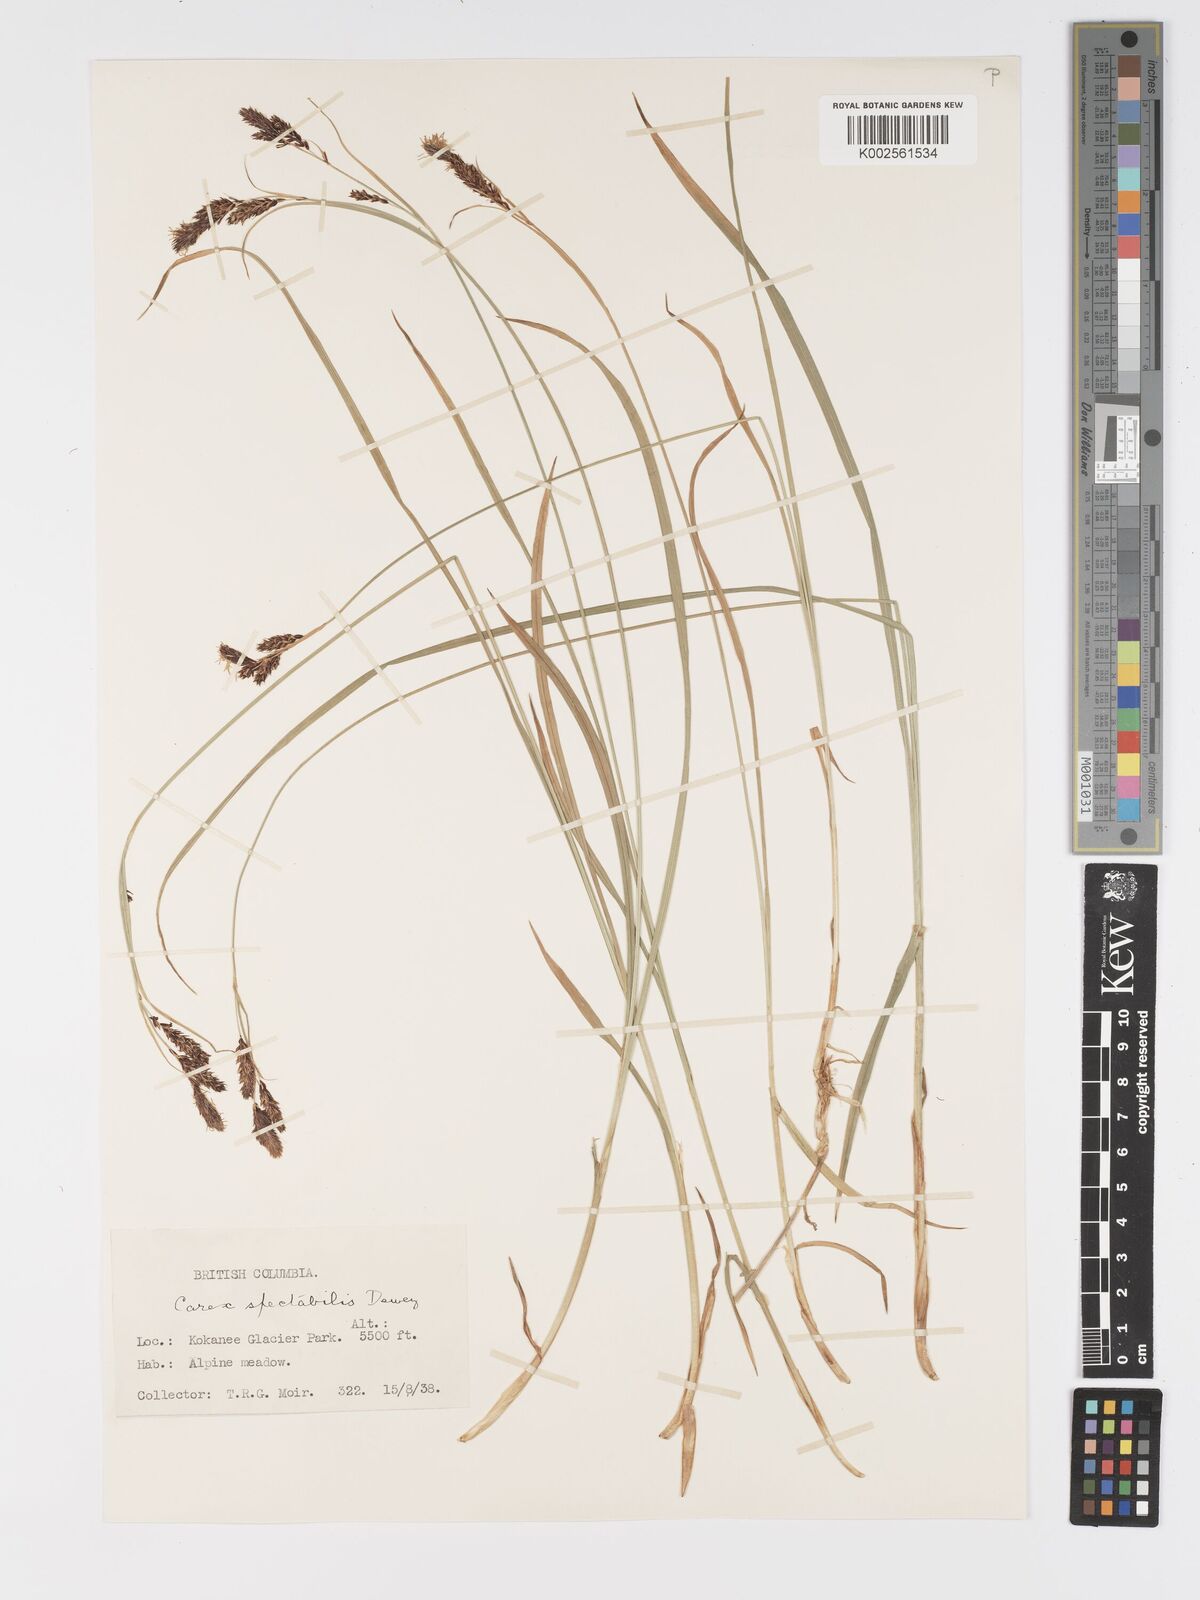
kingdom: Plantae
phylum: Tracheophyta
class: Liliopsida
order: Poales
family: Cyperaceae
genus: Carex
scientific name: Carex spectabilis
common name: Northwestern showy sedge
